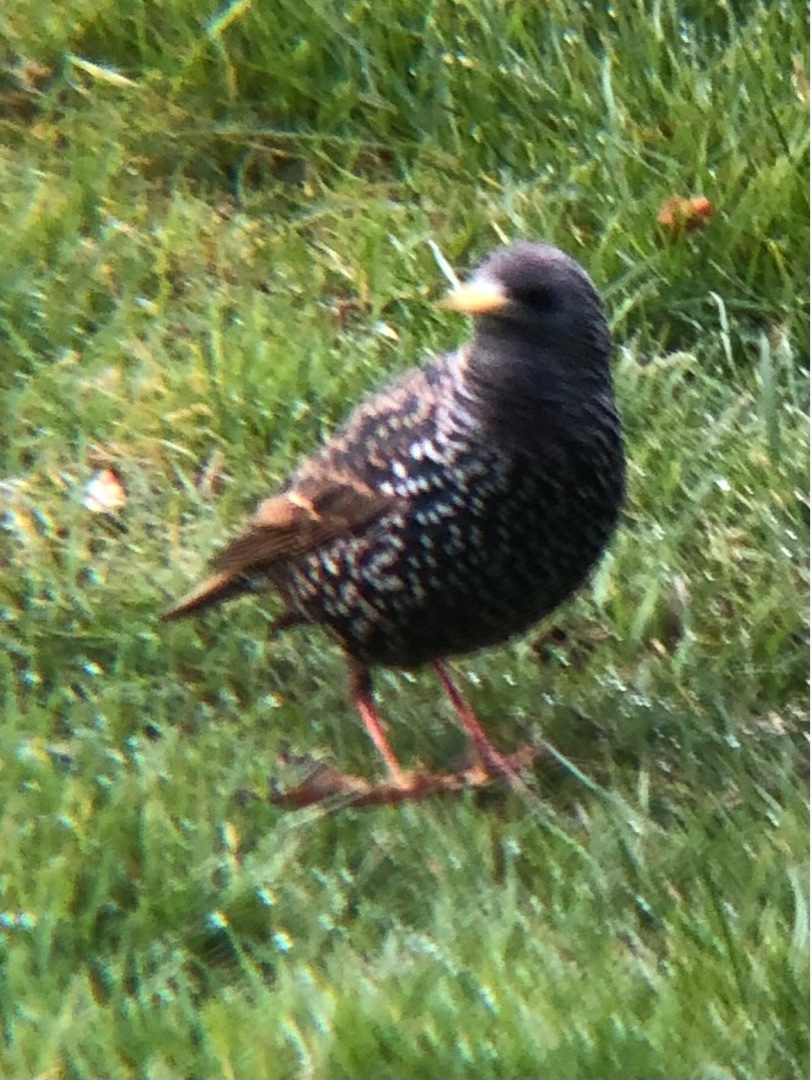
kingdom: Animalia
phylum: Chordata
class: Aves
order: Passeriformes
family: Sturnidae
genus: Sturnus
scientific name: Sturnus vulgaris
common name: Stær
